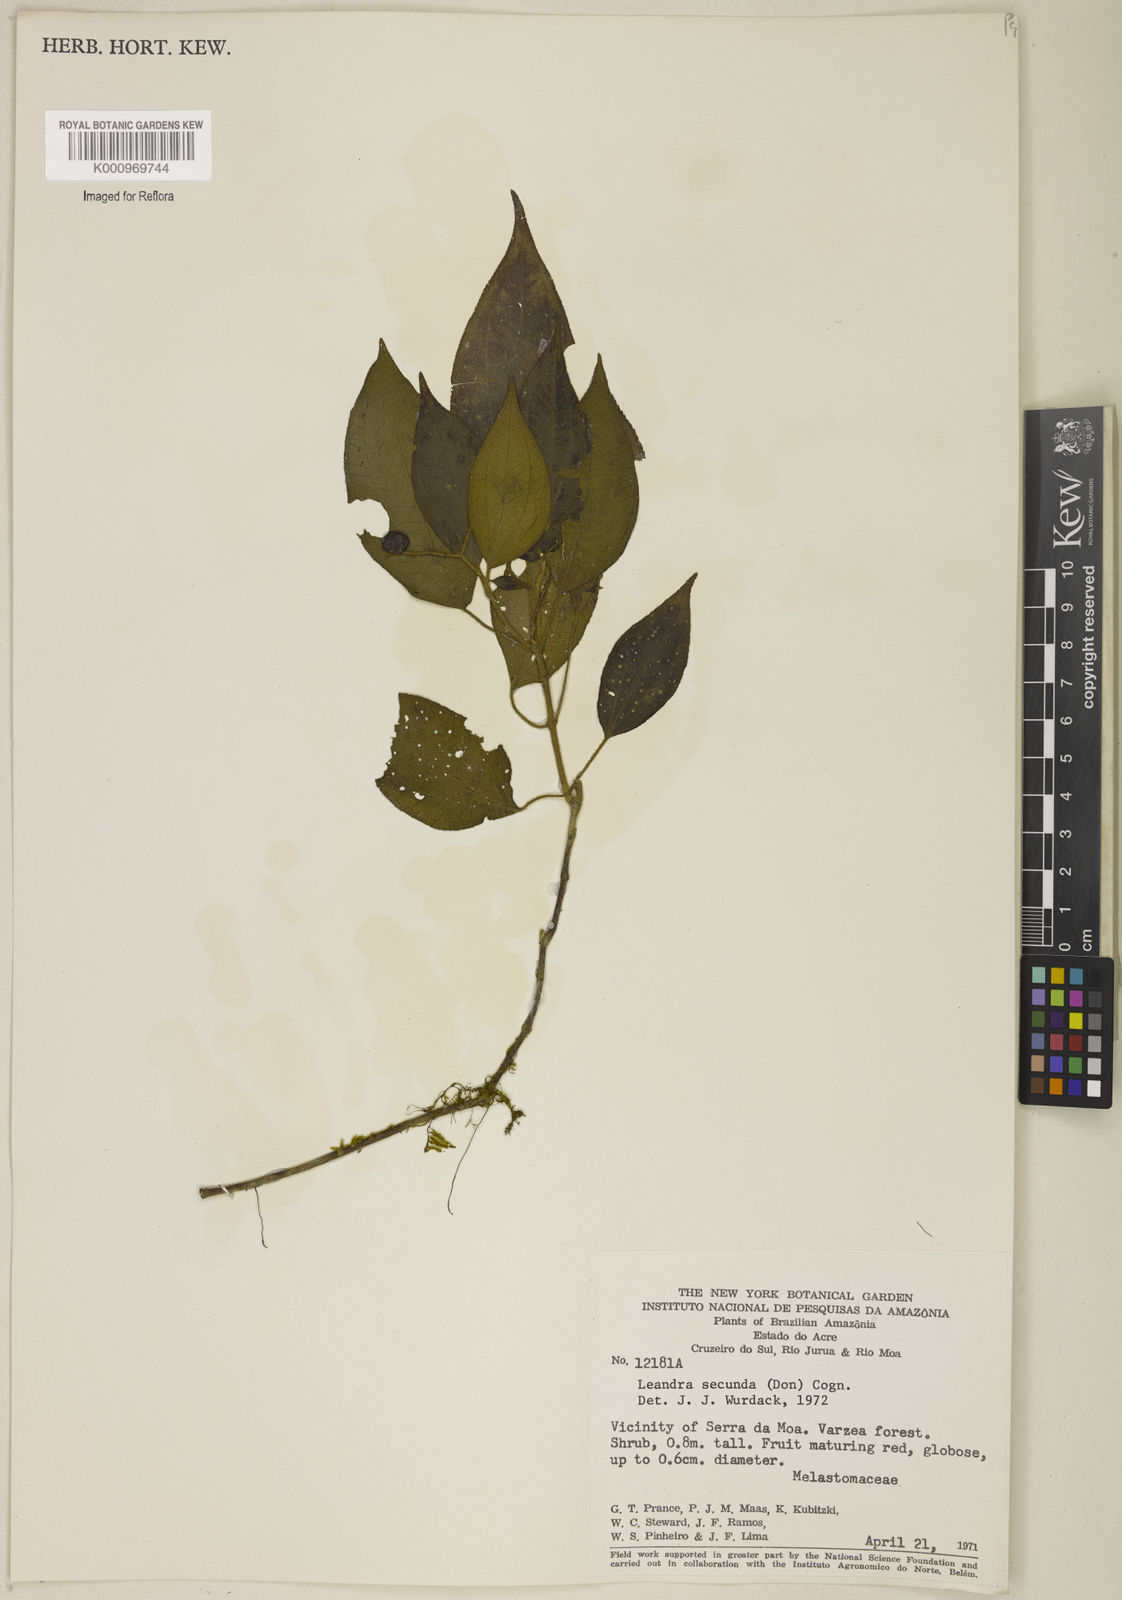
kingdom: Plantae
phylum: Tracheophyta
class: Magnoliopsida
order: Myrtales
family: Melastomataceae
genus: Miconia
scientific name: Miconia neosecunda
